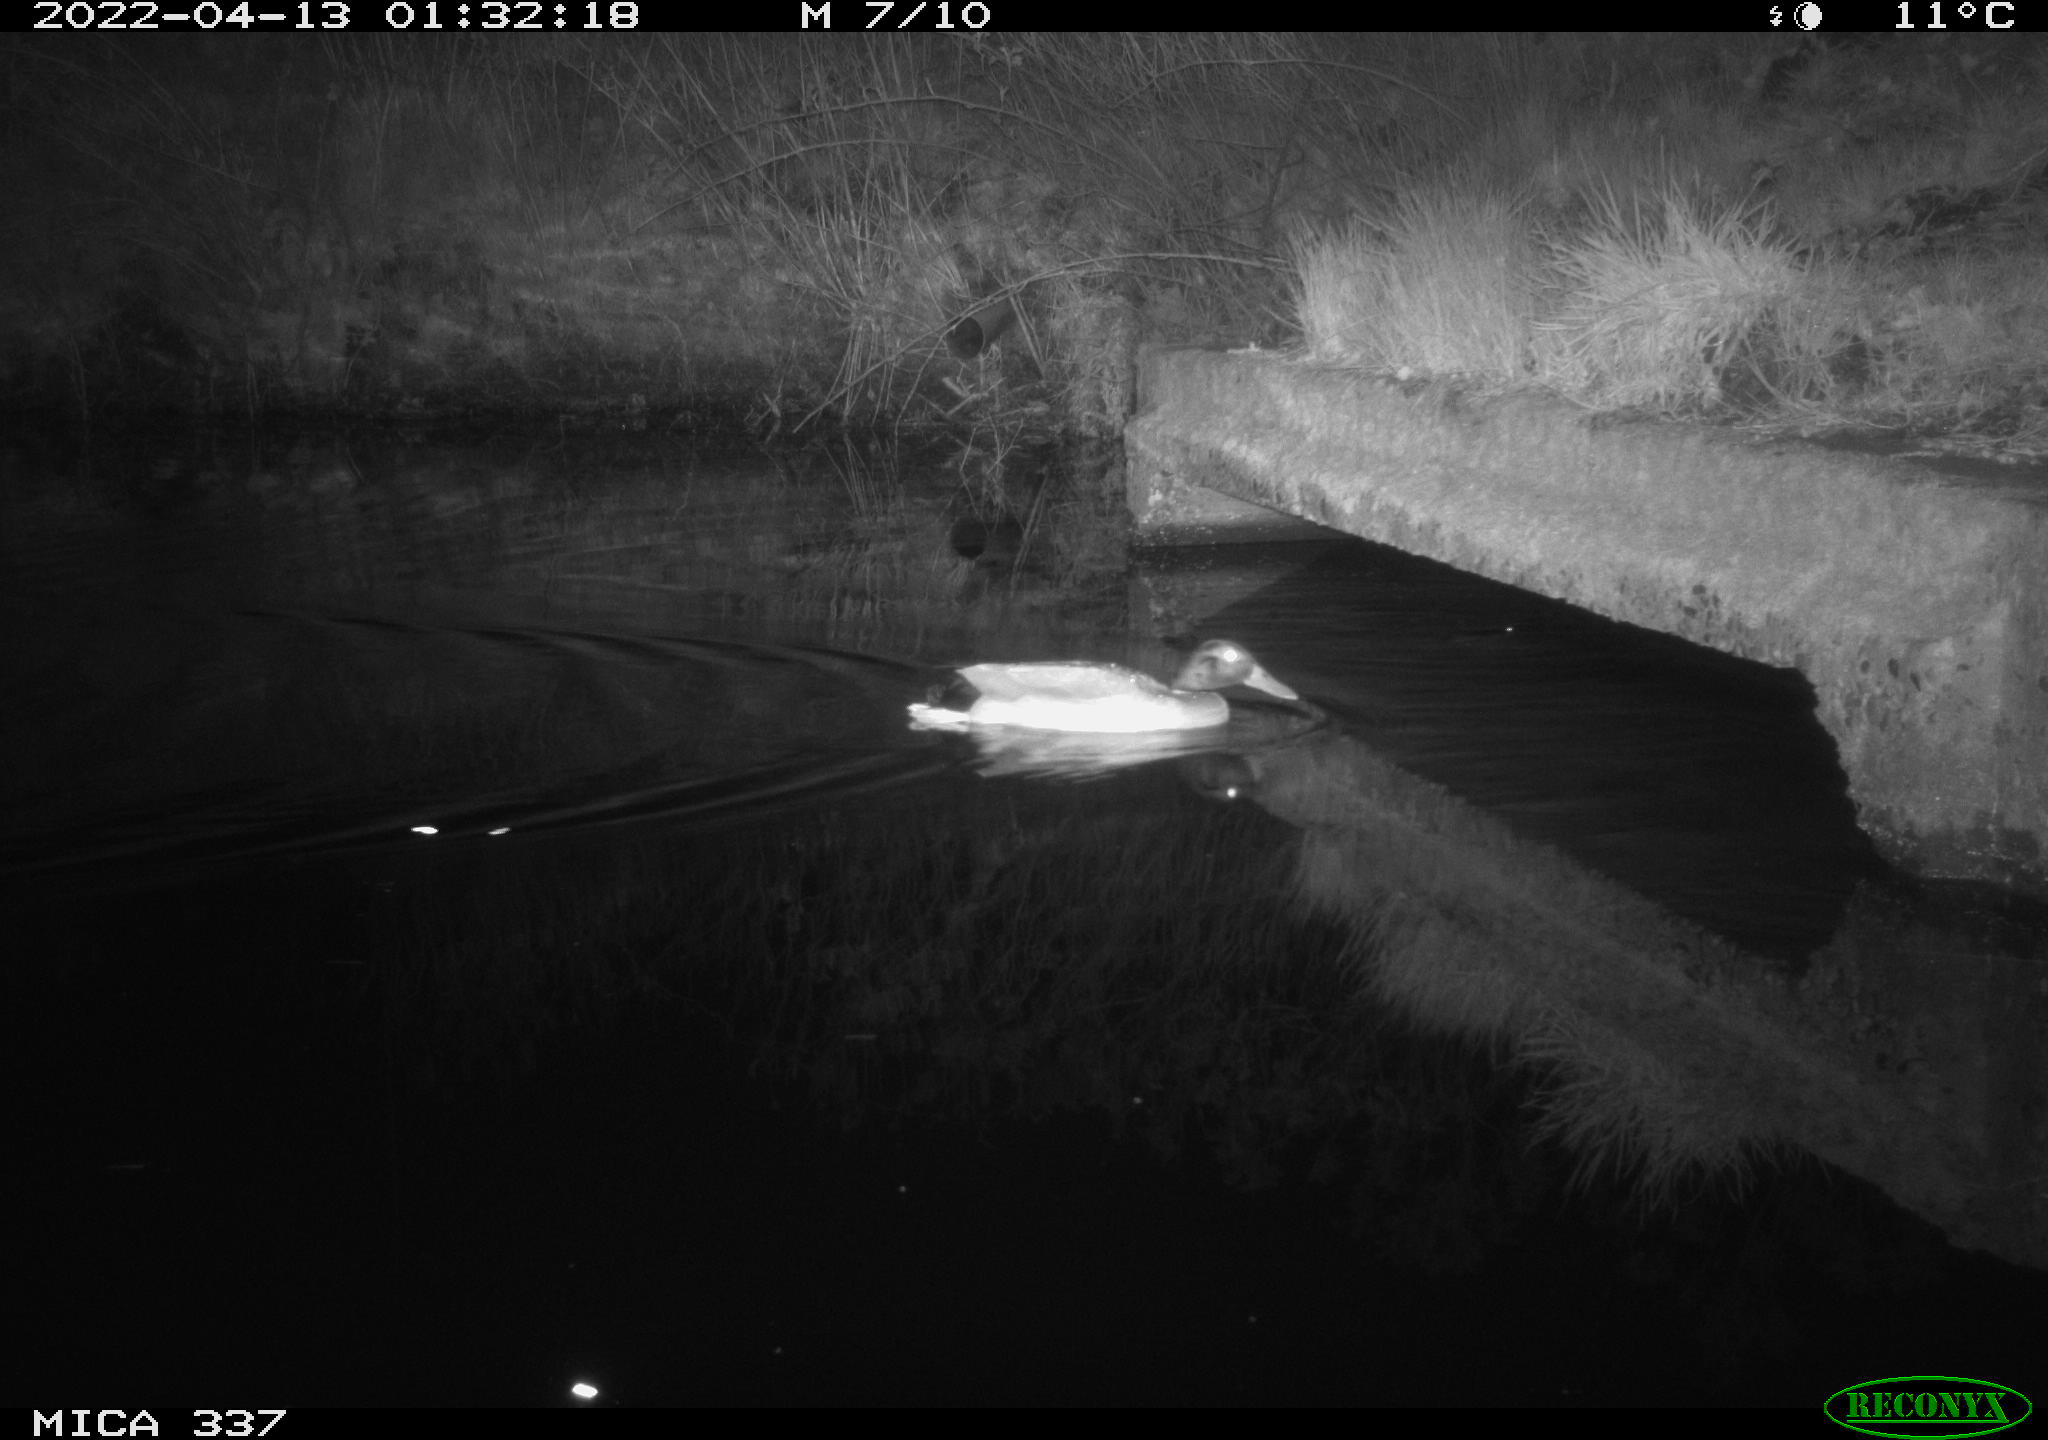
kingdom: Animalia
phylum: Chordata
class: Aves
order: Anseriformes
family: Anatidae
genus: Anas
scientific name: Anas platyrhynchos
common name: Mallard
